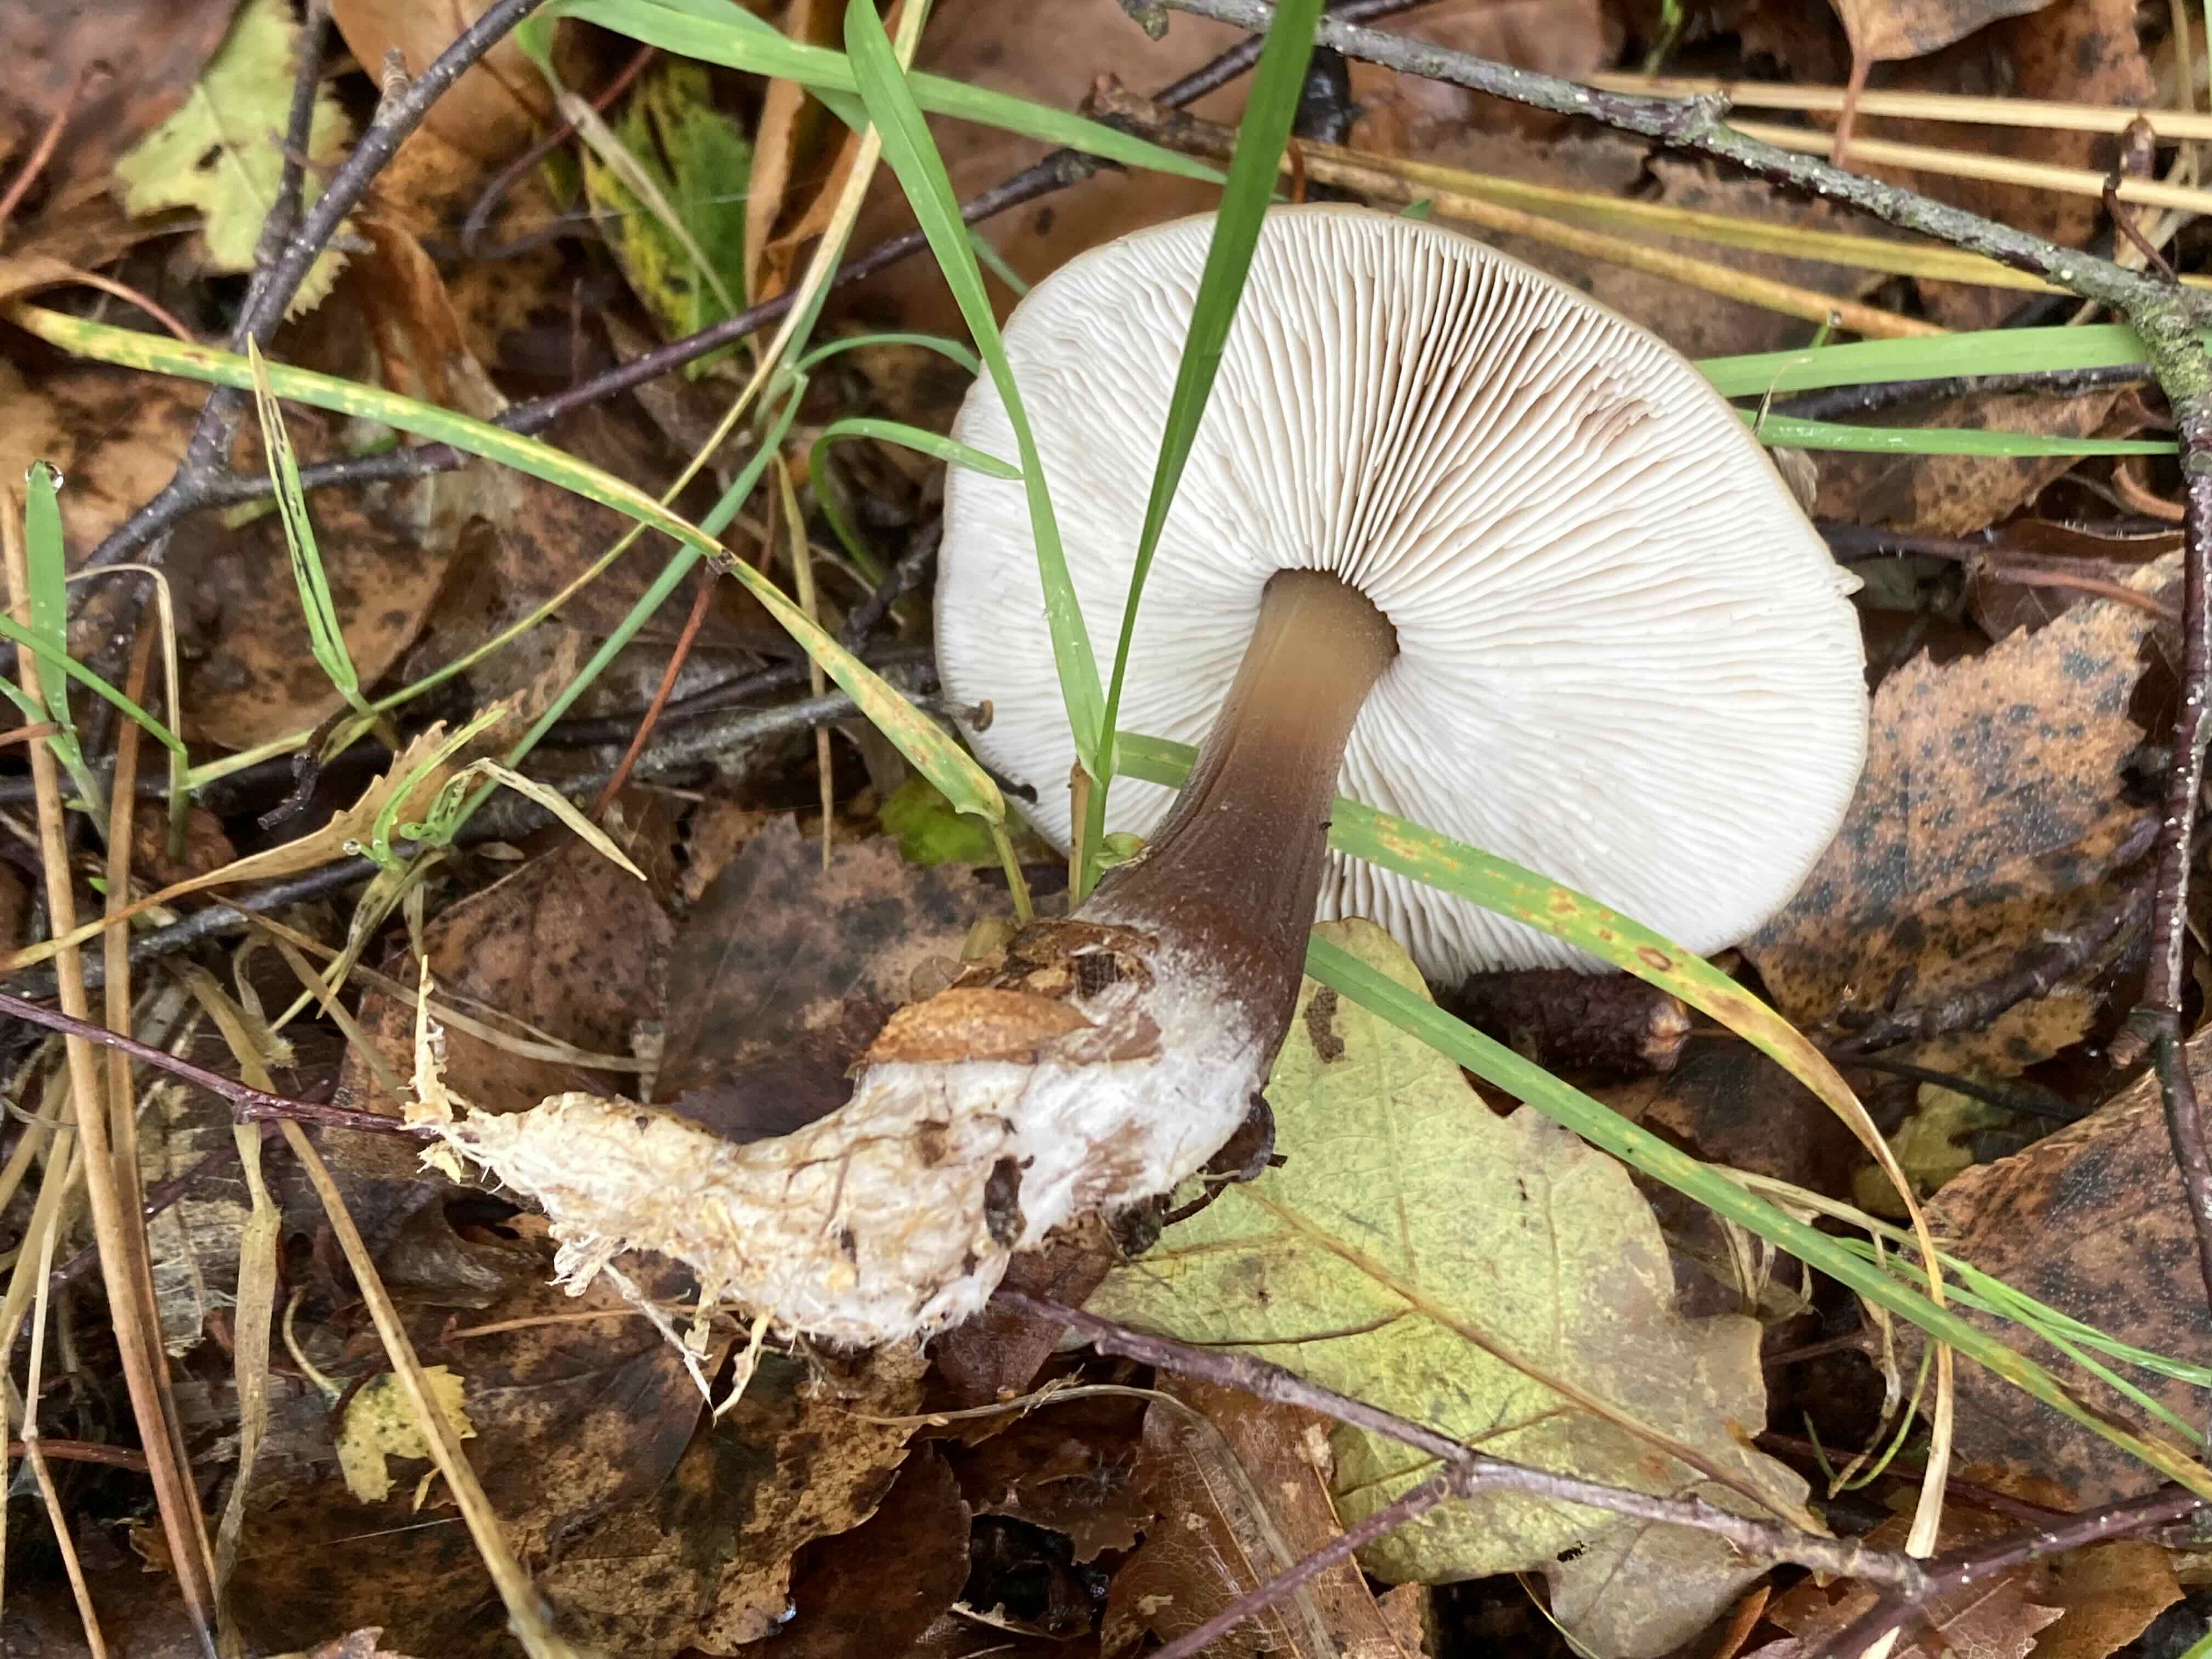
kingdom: Fungi
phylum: Basidiomycota
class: Agaricomycetes
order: Agaricales
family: Omphalotaceae
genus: Rhodocollybia
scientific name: Rhodocollybia asema
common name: horngrå fladhat
